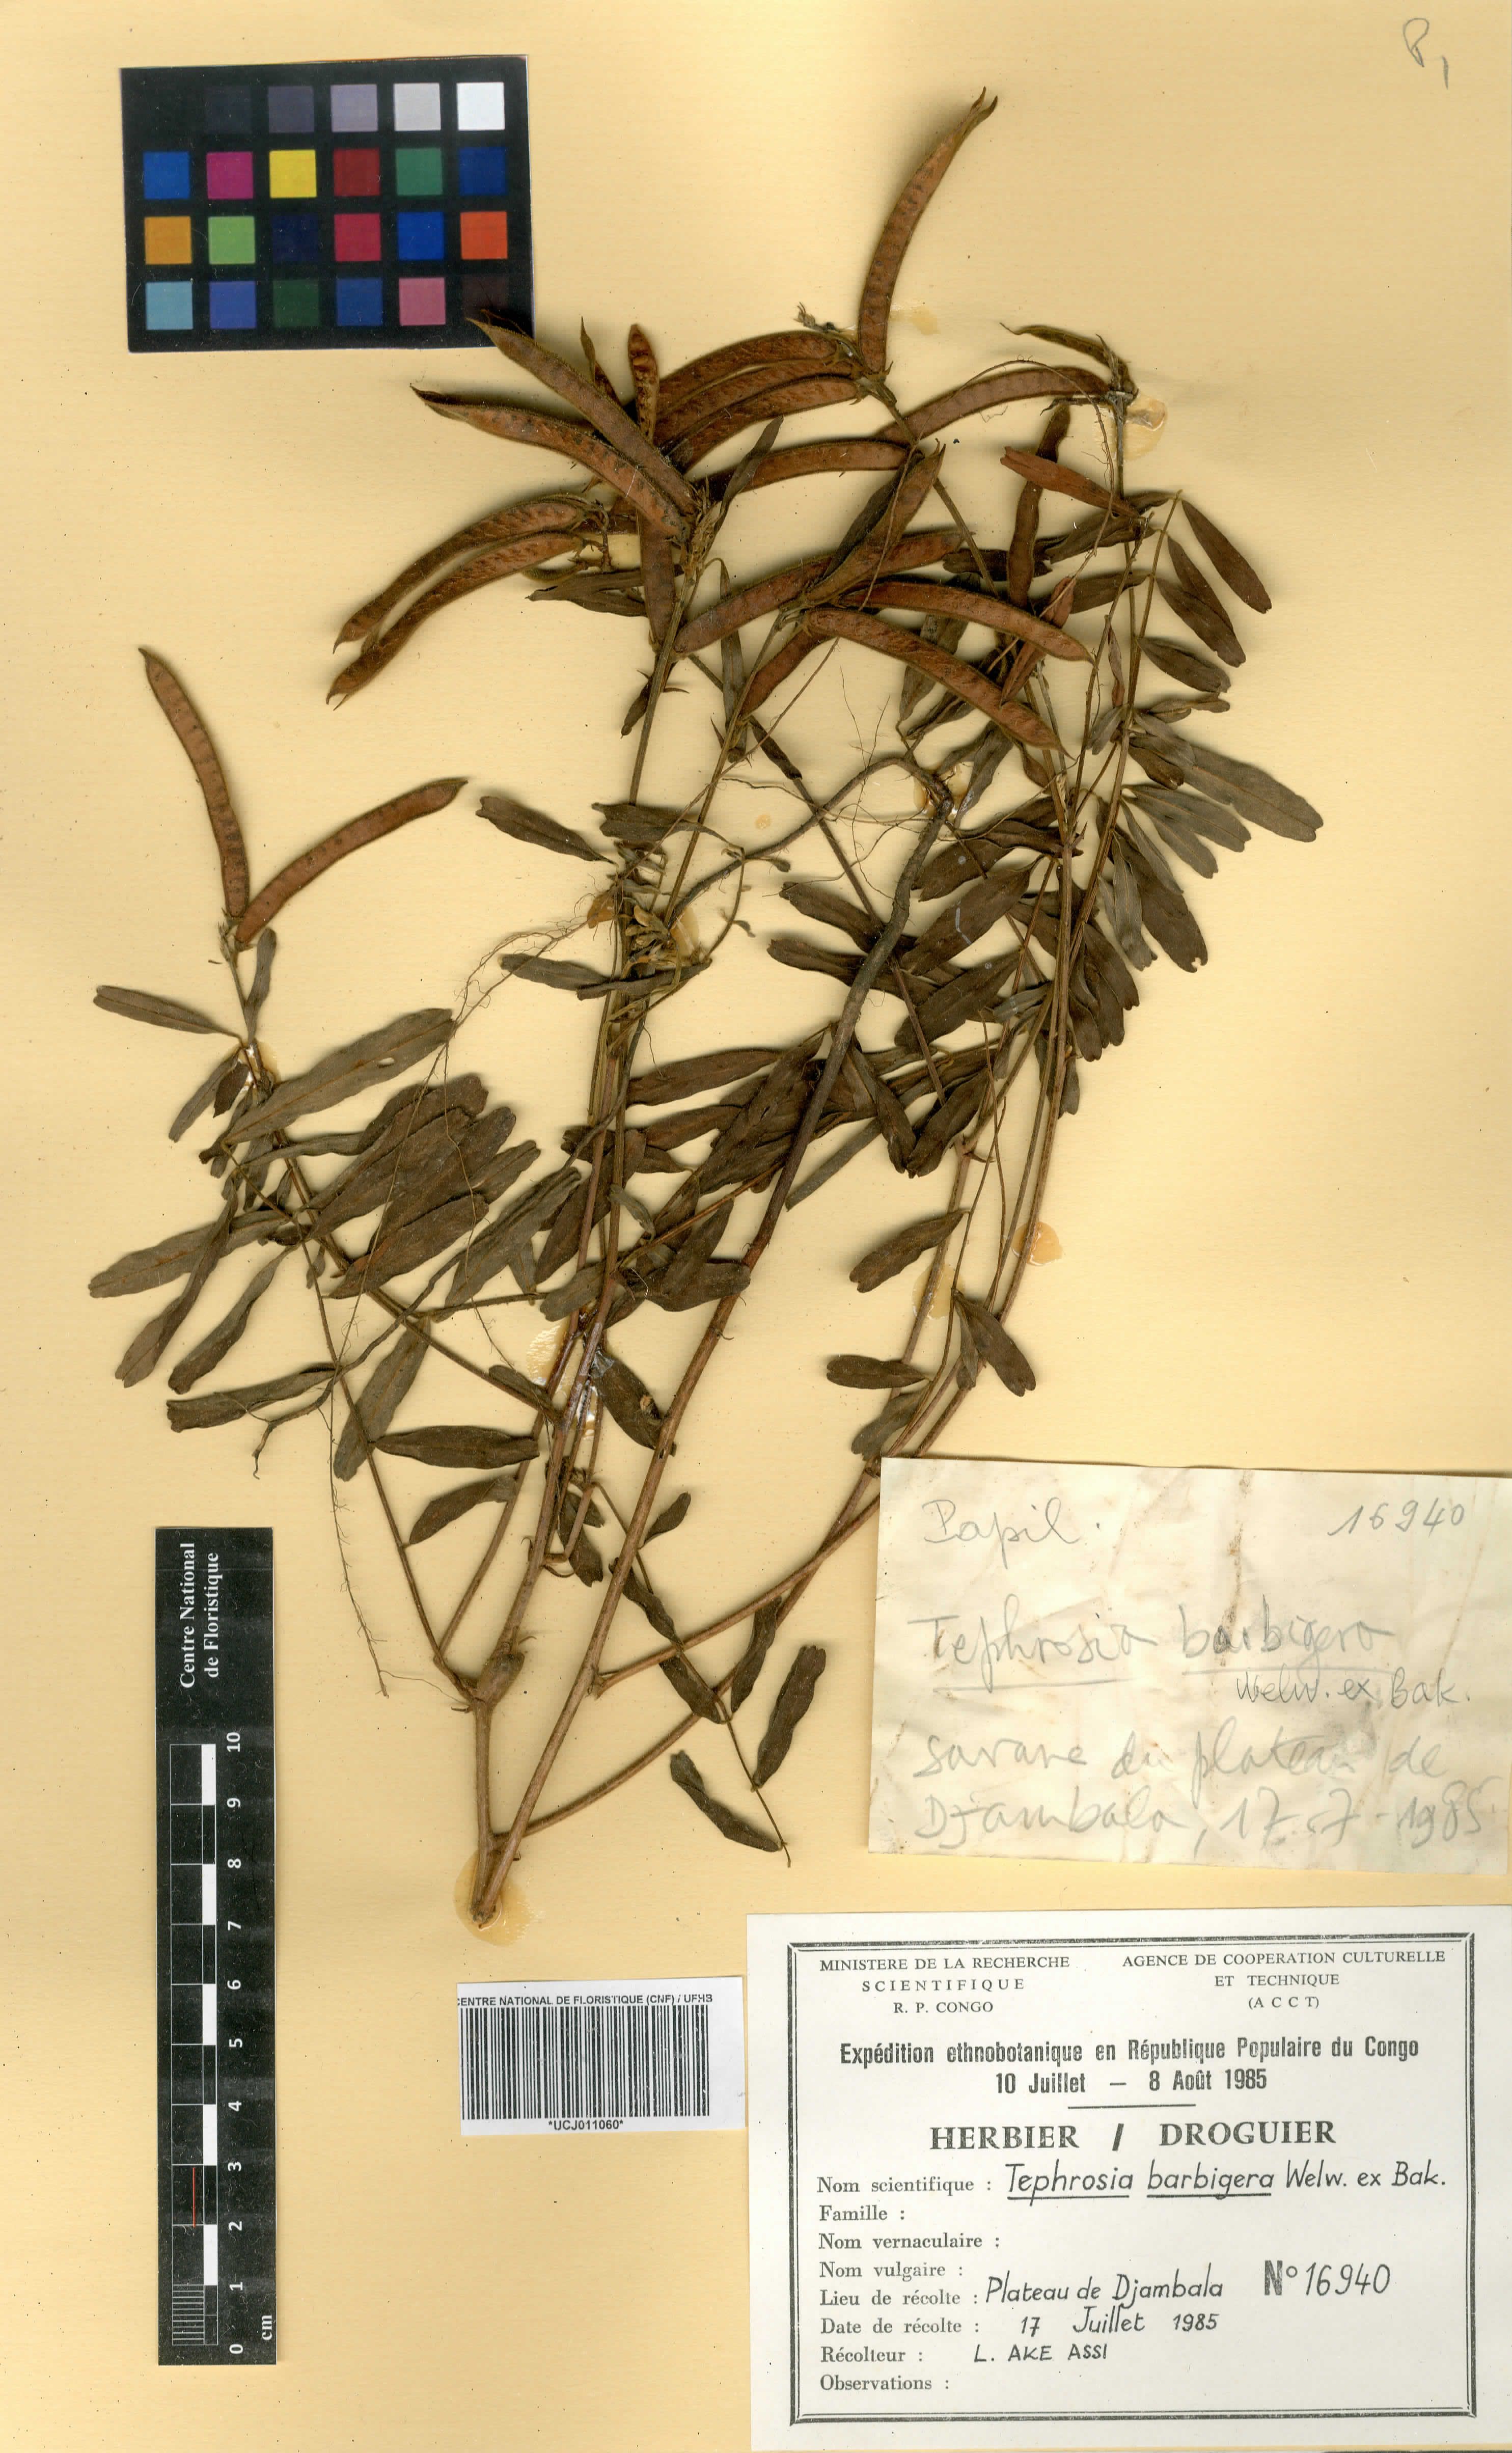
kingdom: Plantae
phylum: Tracheophyta
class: Magnoliopsida
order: Fabales
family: Fabaceae
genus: Tephrosia
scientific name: Tephrosia nana
